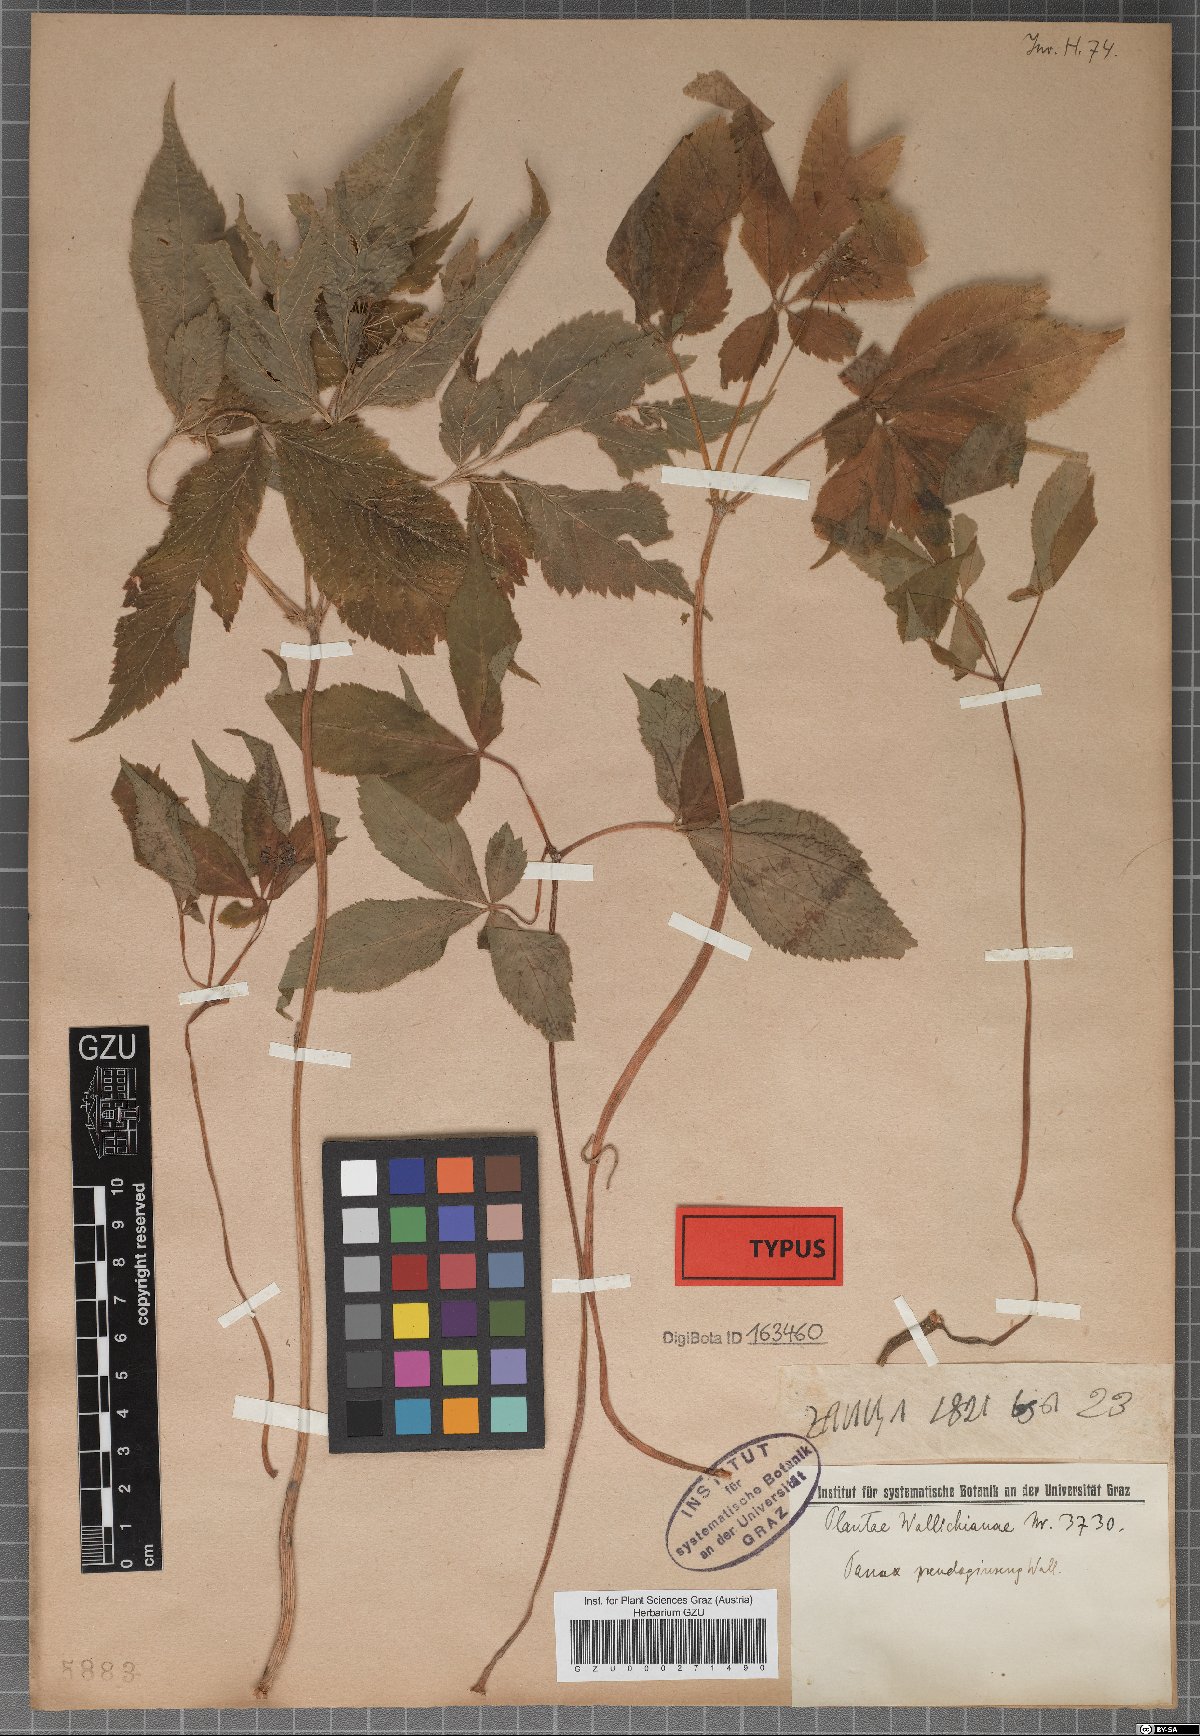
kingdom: Plantae
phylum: Tracheophyta
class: Magnoliopsida
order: Apiales
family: Araliaceae
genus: Panax
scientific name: Panax pseudoginseng
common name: Pseudoginseng
